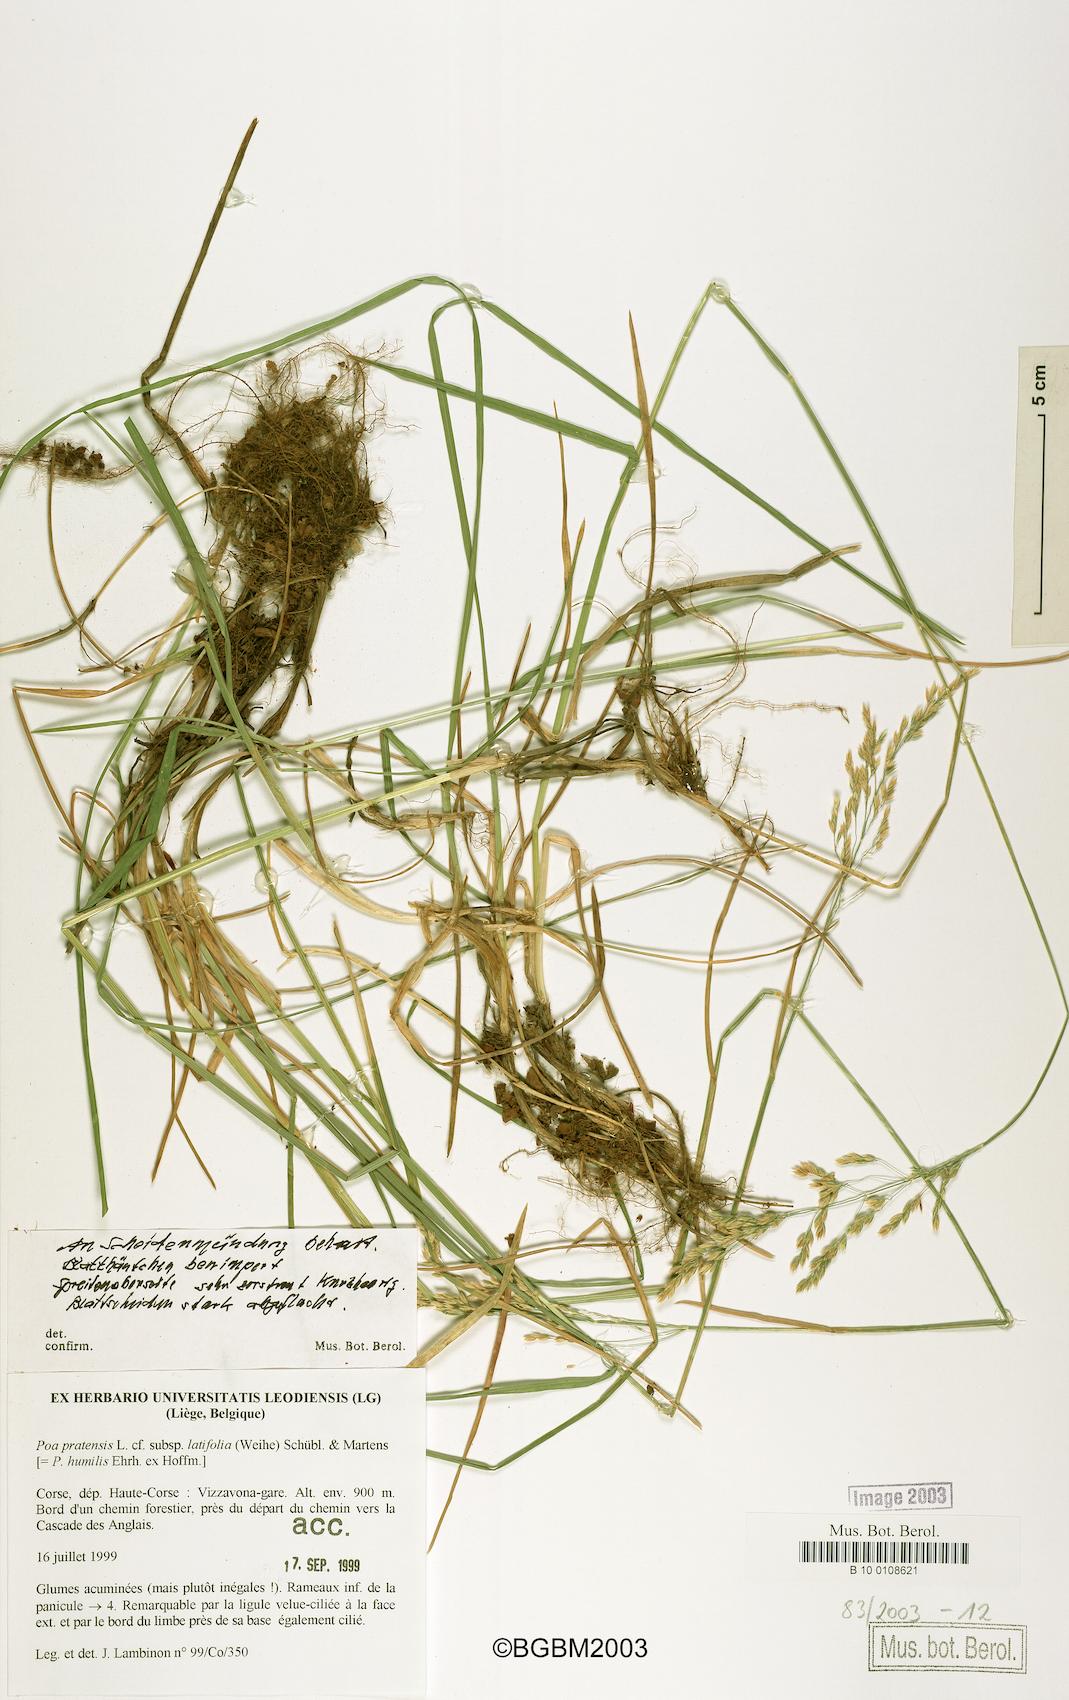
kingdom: Plantae
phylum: Tracheophyta
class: Liliopsida
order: Poales
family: Poaceae
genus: Poa
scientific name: Poa humilis
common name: Spreading meadow-grass
